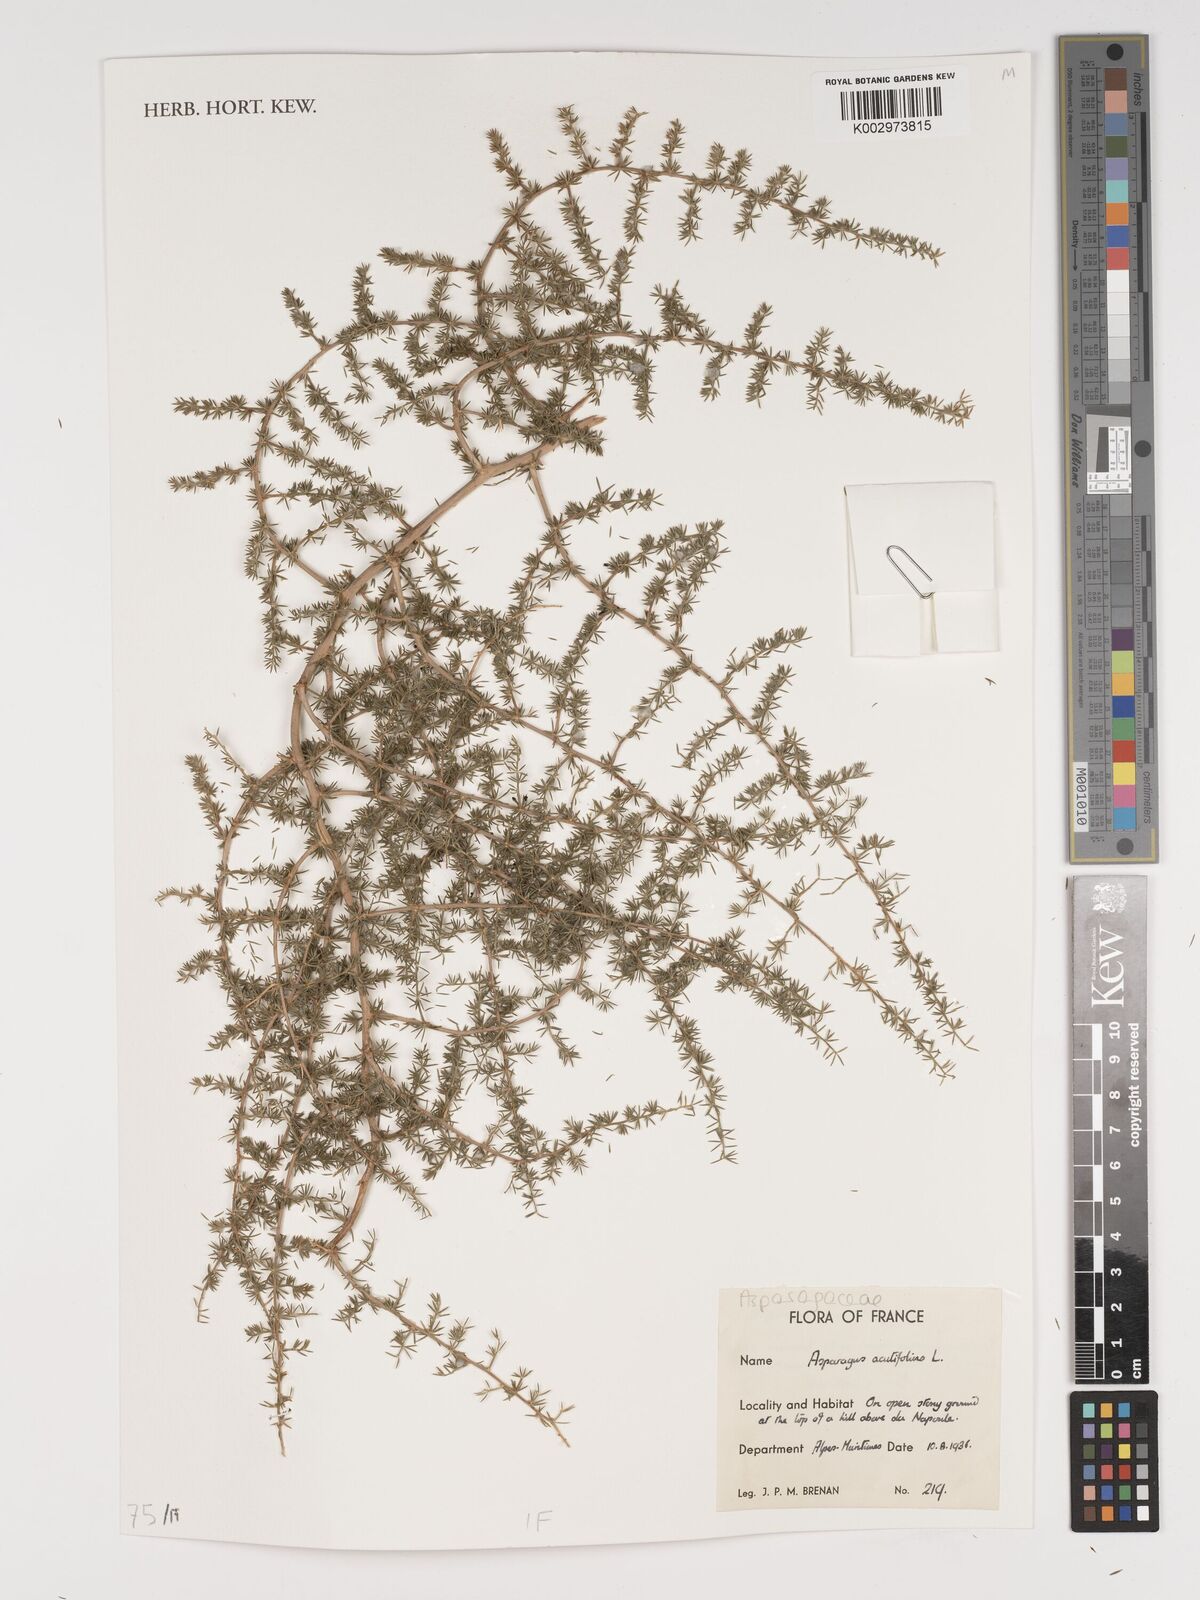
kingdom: Plantae
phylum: Tracheophyta
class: Liliopsida
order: Asparagales
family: Asparagaceae
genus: Asparagus
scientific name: Asparagus aethiopicus
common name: Sprenger's asparagus fern
